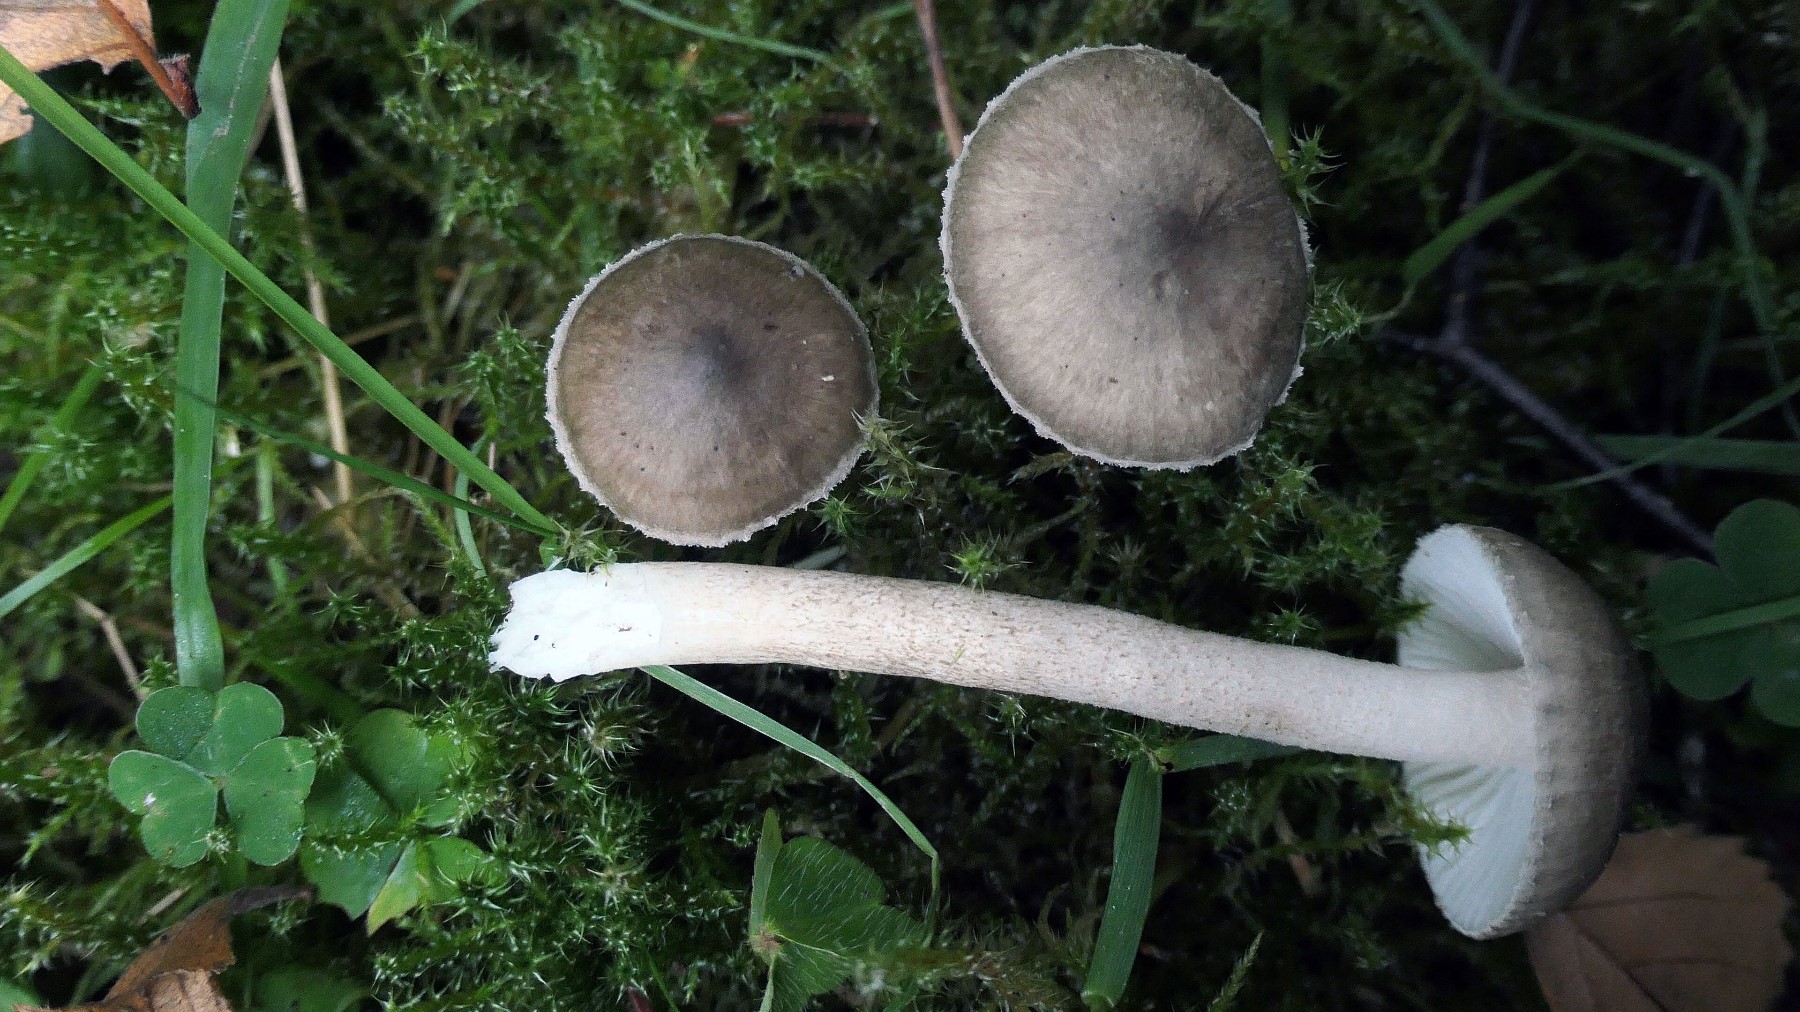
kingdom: Fungi
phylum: Basidiomycota
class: Agaricomycetes
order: Agaricales
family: Hygrophoraceae
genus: Hygrophorus
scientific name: Hygrophorus pustulatus
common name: mørkprikket sneglehat
